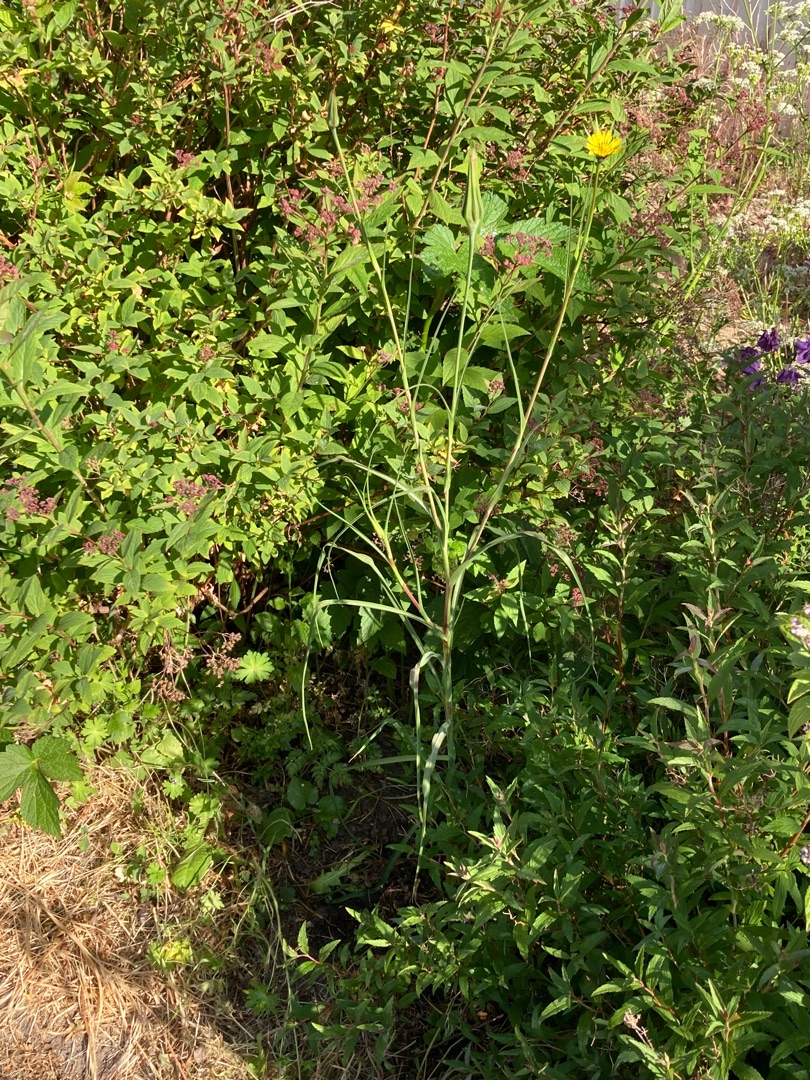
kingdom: Plantae
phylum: Tracheophyta
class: Magnoliopsida
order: Asterales
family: Asteraceae
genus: Tragopogon
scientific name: Tragopogon pratensis
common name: Gedeskæg
